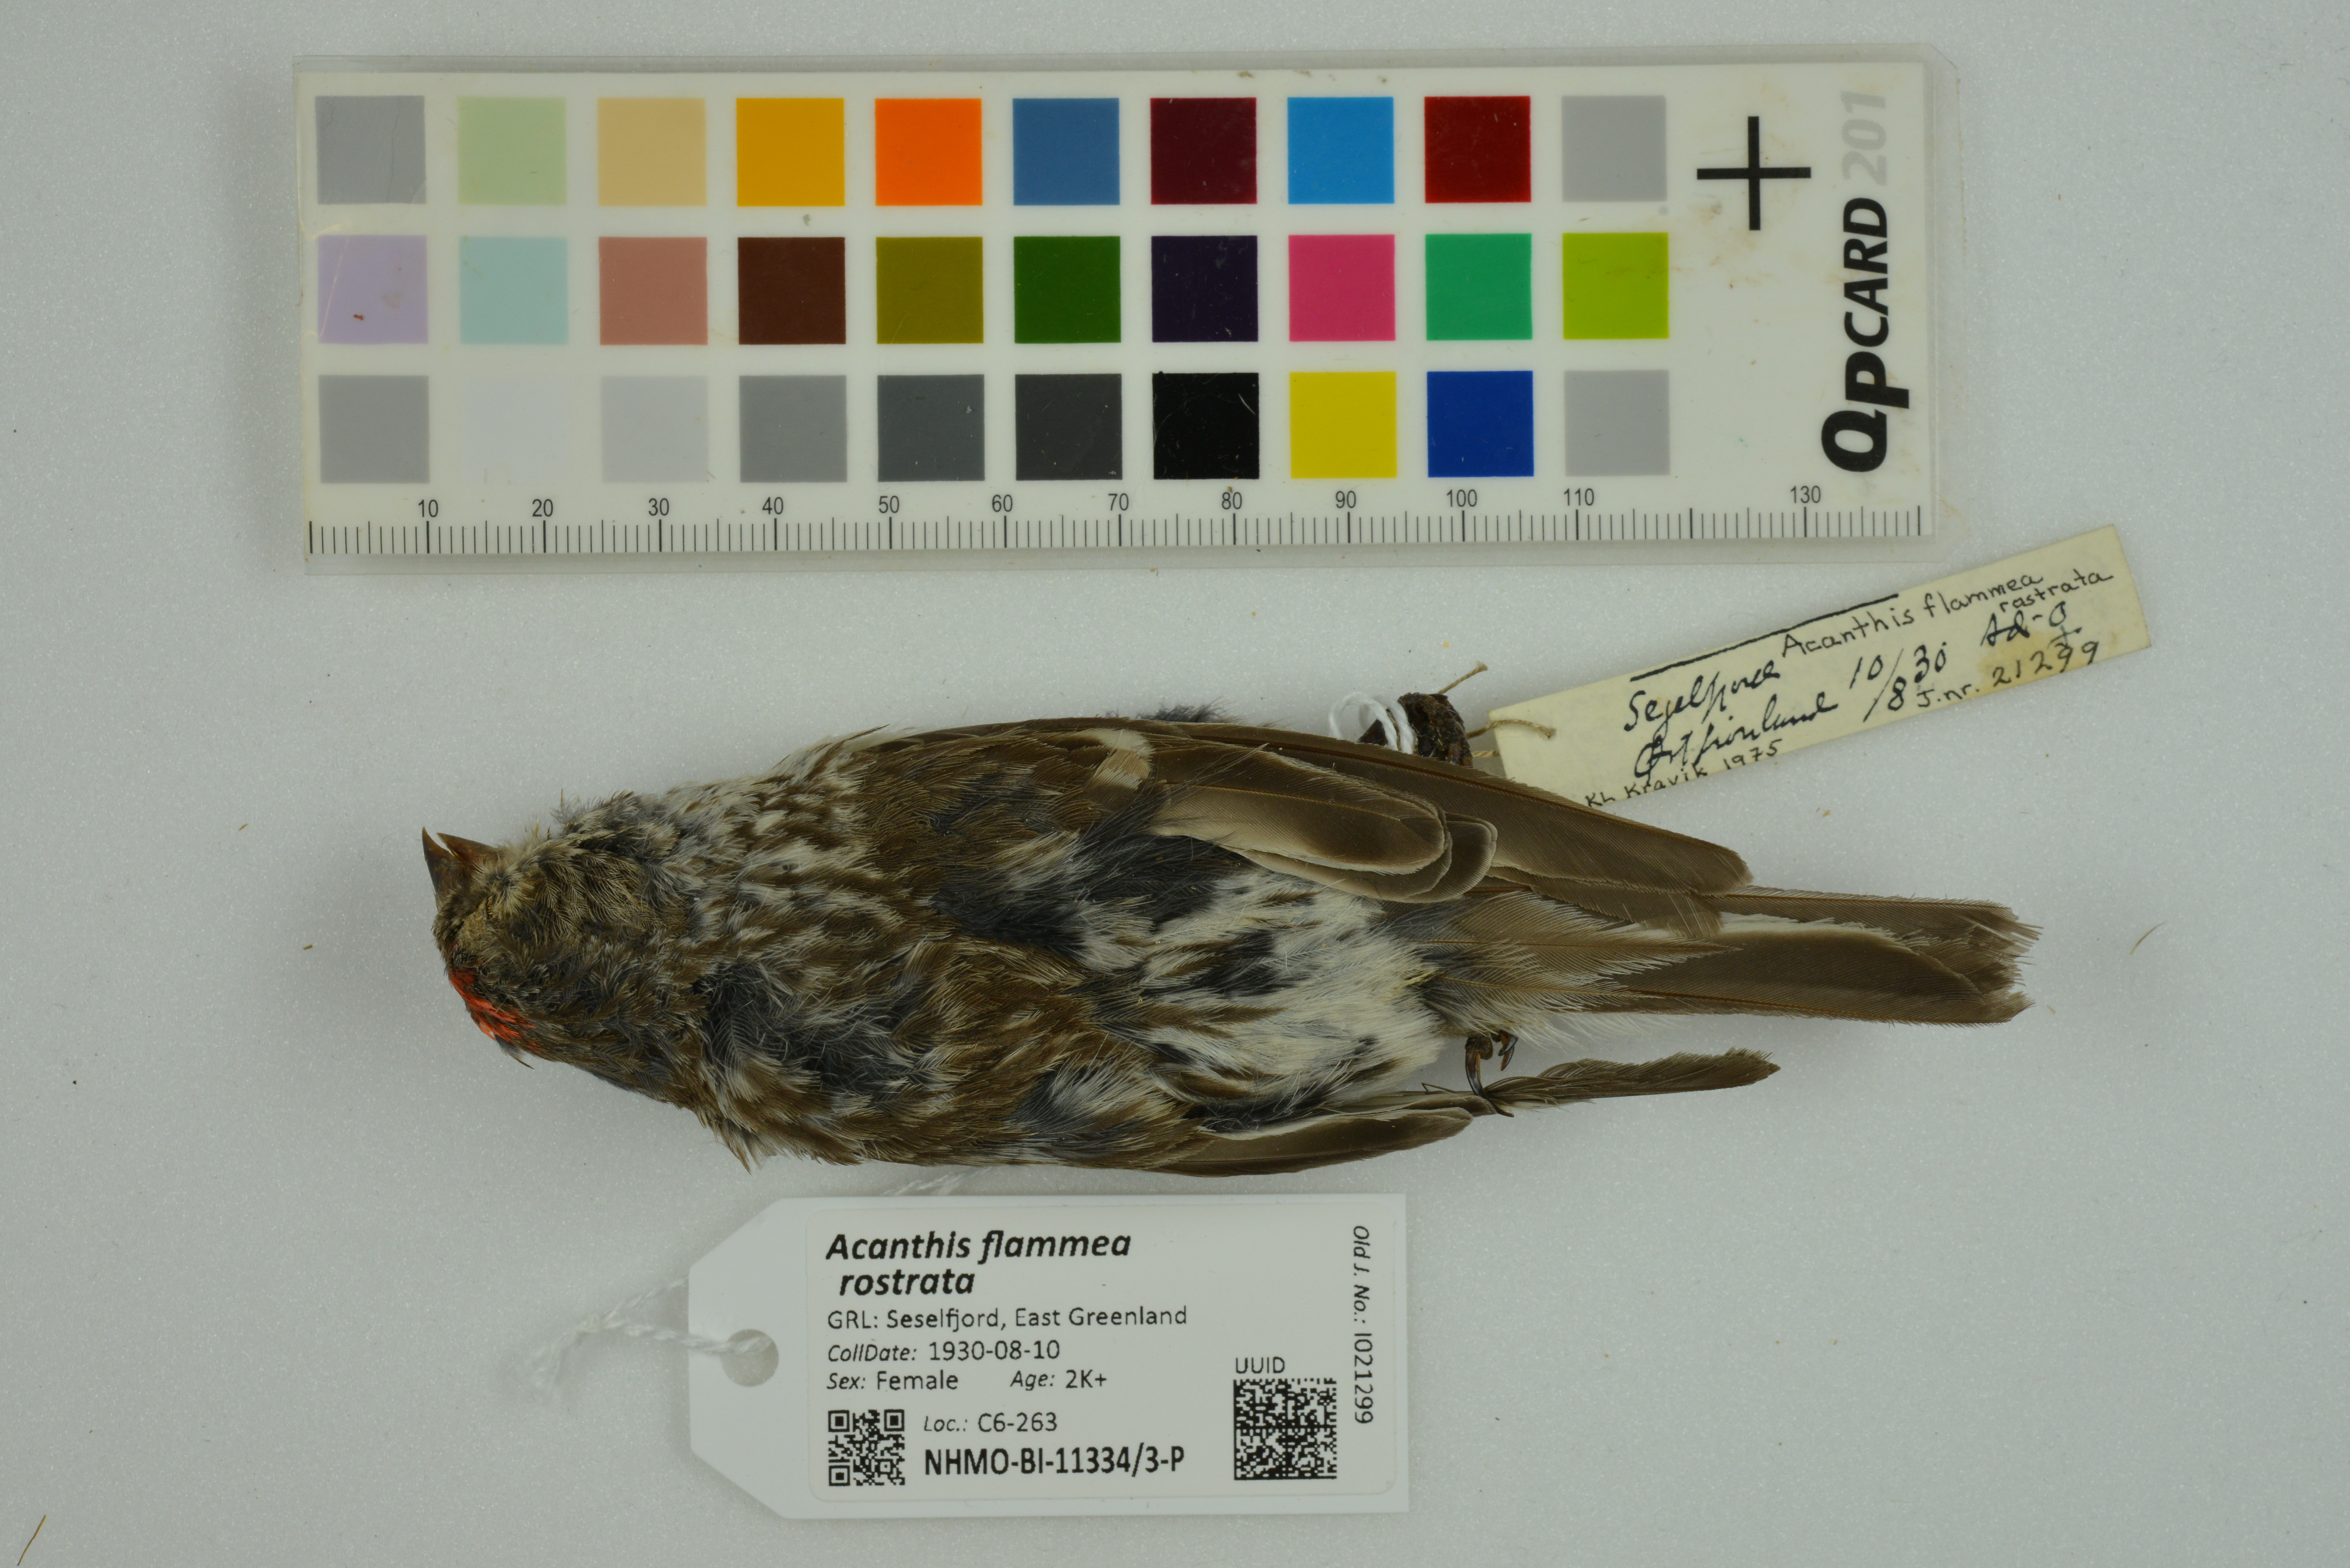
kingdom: Animalia
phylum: Chordata
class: Aves
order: Passeriformes
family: Fringillidae
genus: Acanthis
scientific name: Acanthis flammea
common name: Common redpoll
